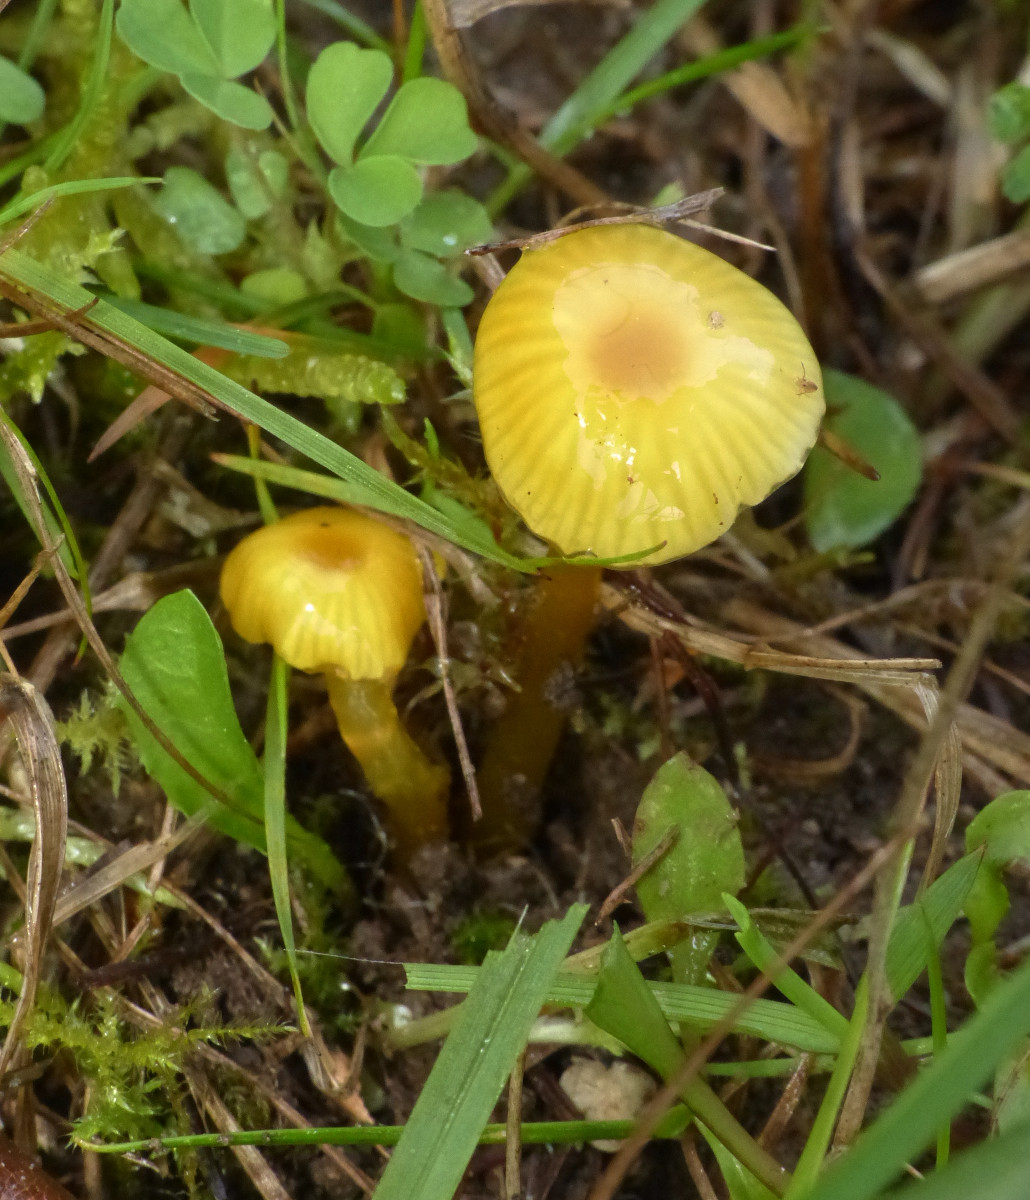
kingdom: Fungi
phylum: Basidiomycota
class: Agaricomycetes
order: Agaricales
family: Hygrophoraceae
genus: Hygrocybe
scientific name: Hygrocybe glutinipes
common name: slimstokket vokshat
